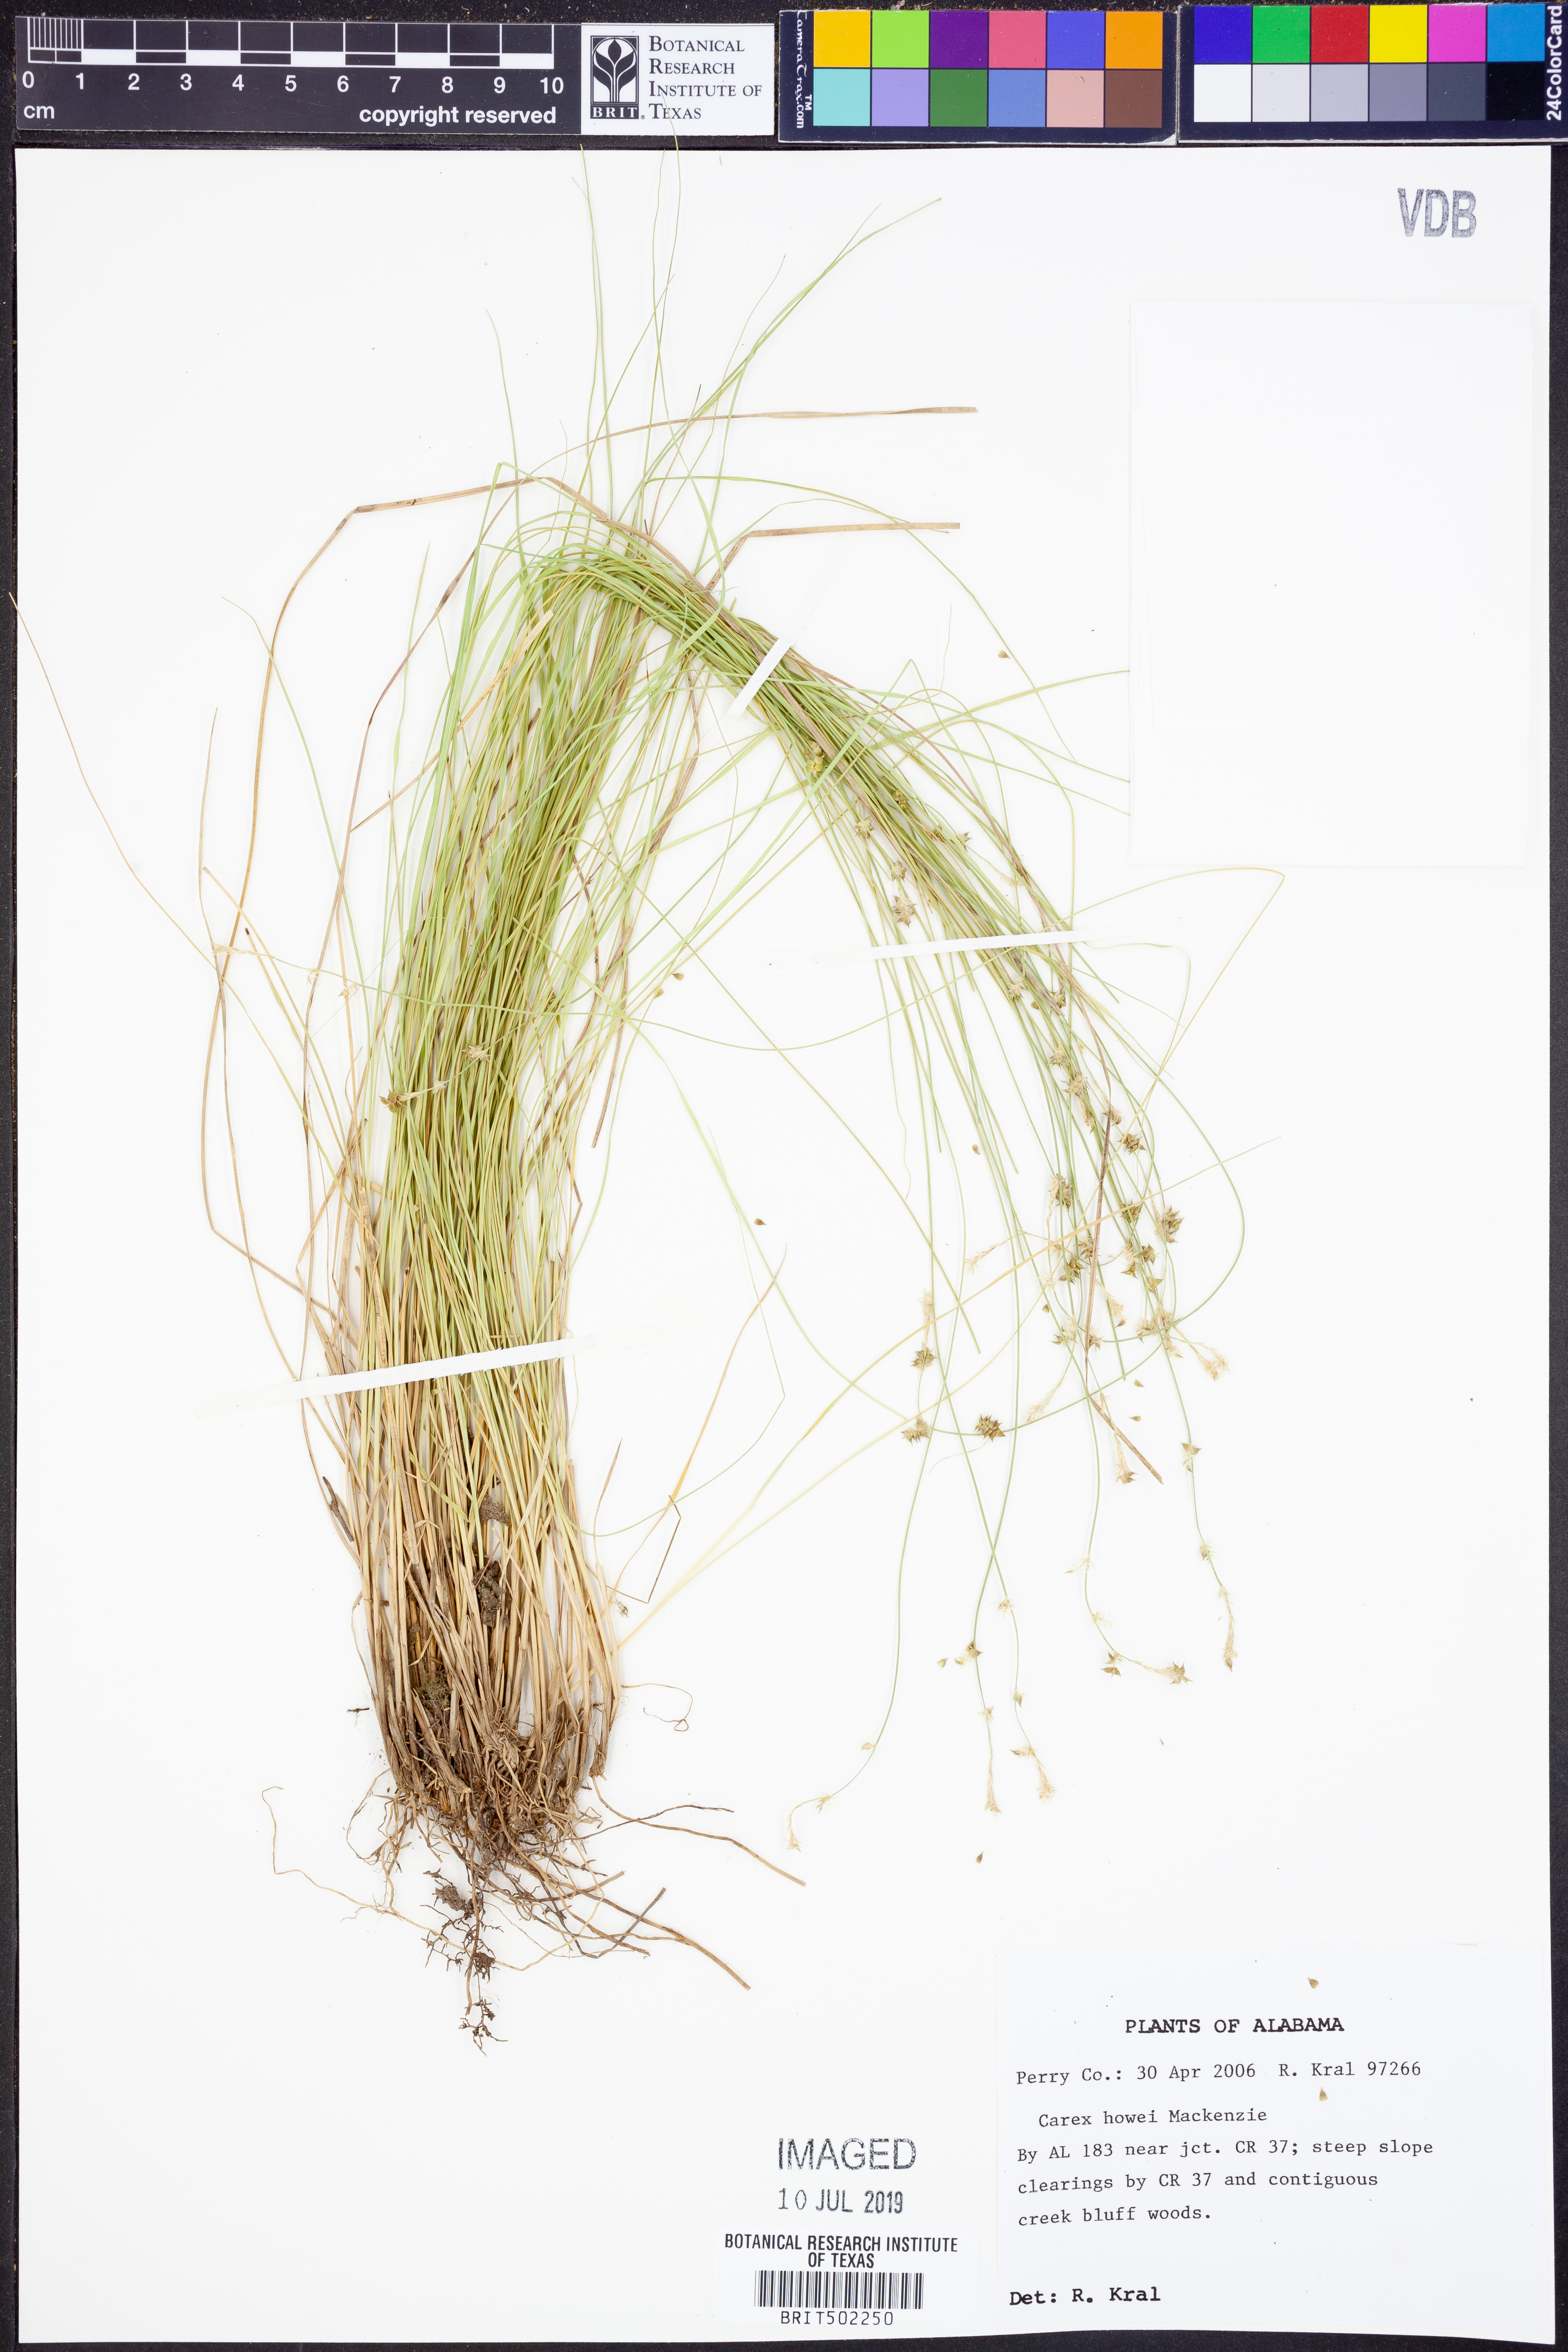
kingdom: Plantae
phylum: Tracheophyta
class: Liliopsida
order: Poales
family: Cyperaceae
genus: Carex
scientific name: Carex atlantica
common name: Atlantic sedge
